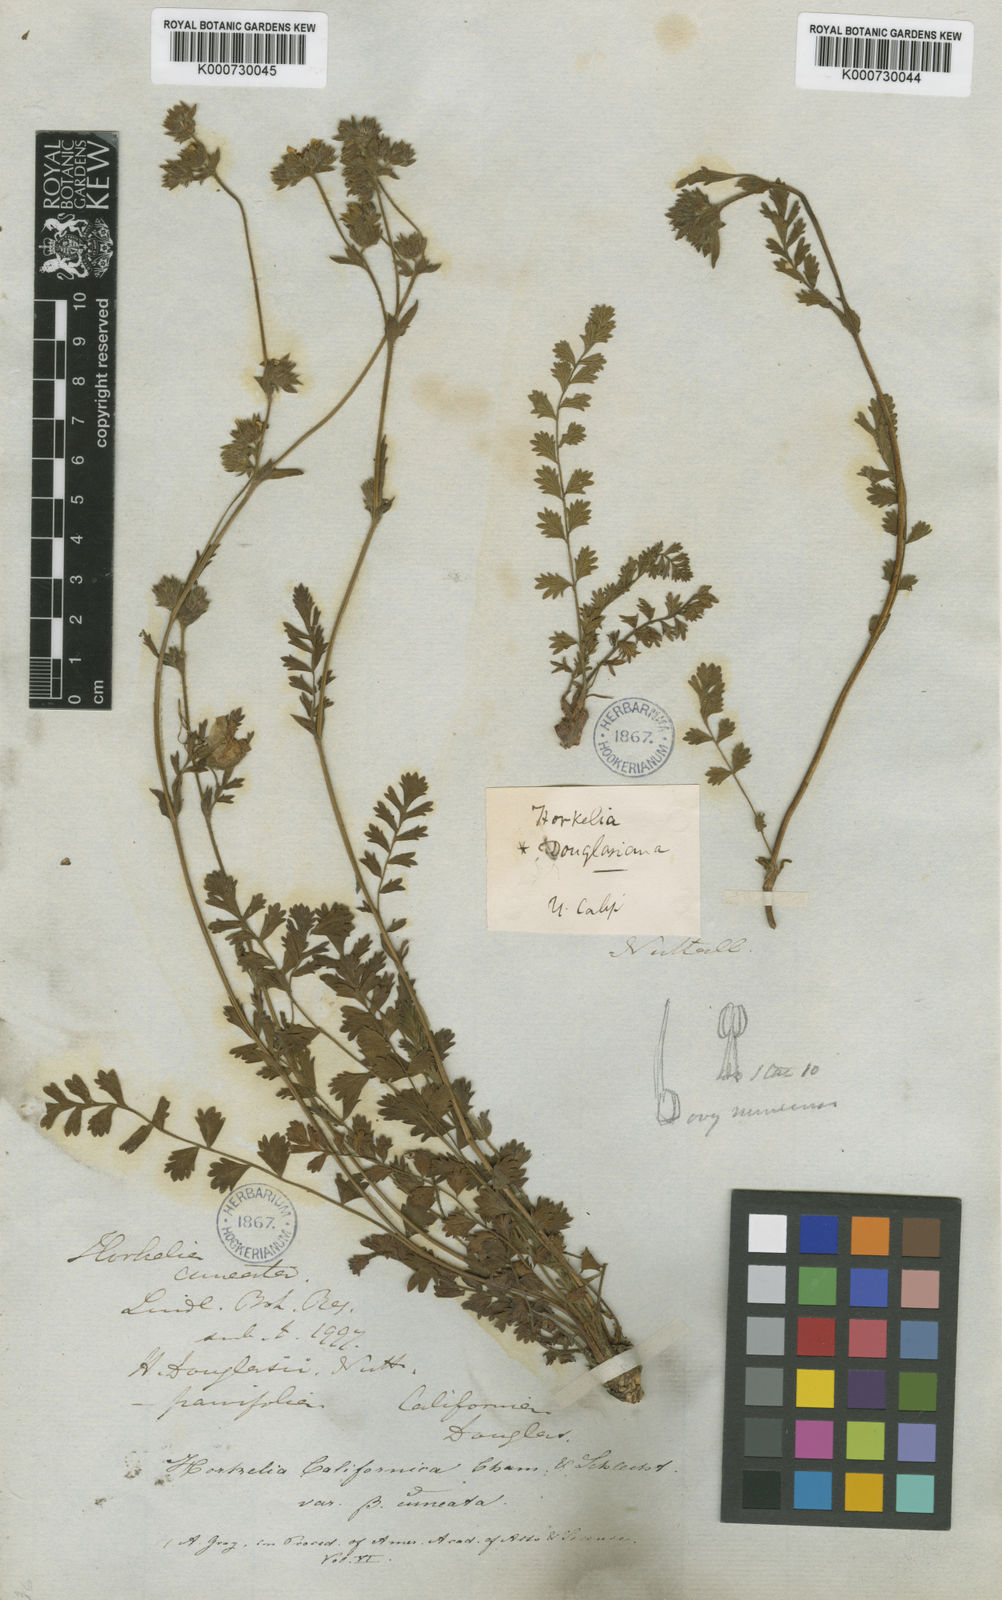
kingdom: Plantae
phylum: Tracheophyta
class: Magnoliopsida
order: Rosales
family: Rosaceae
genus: Potentilla
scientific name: Potentilla lindleyi
